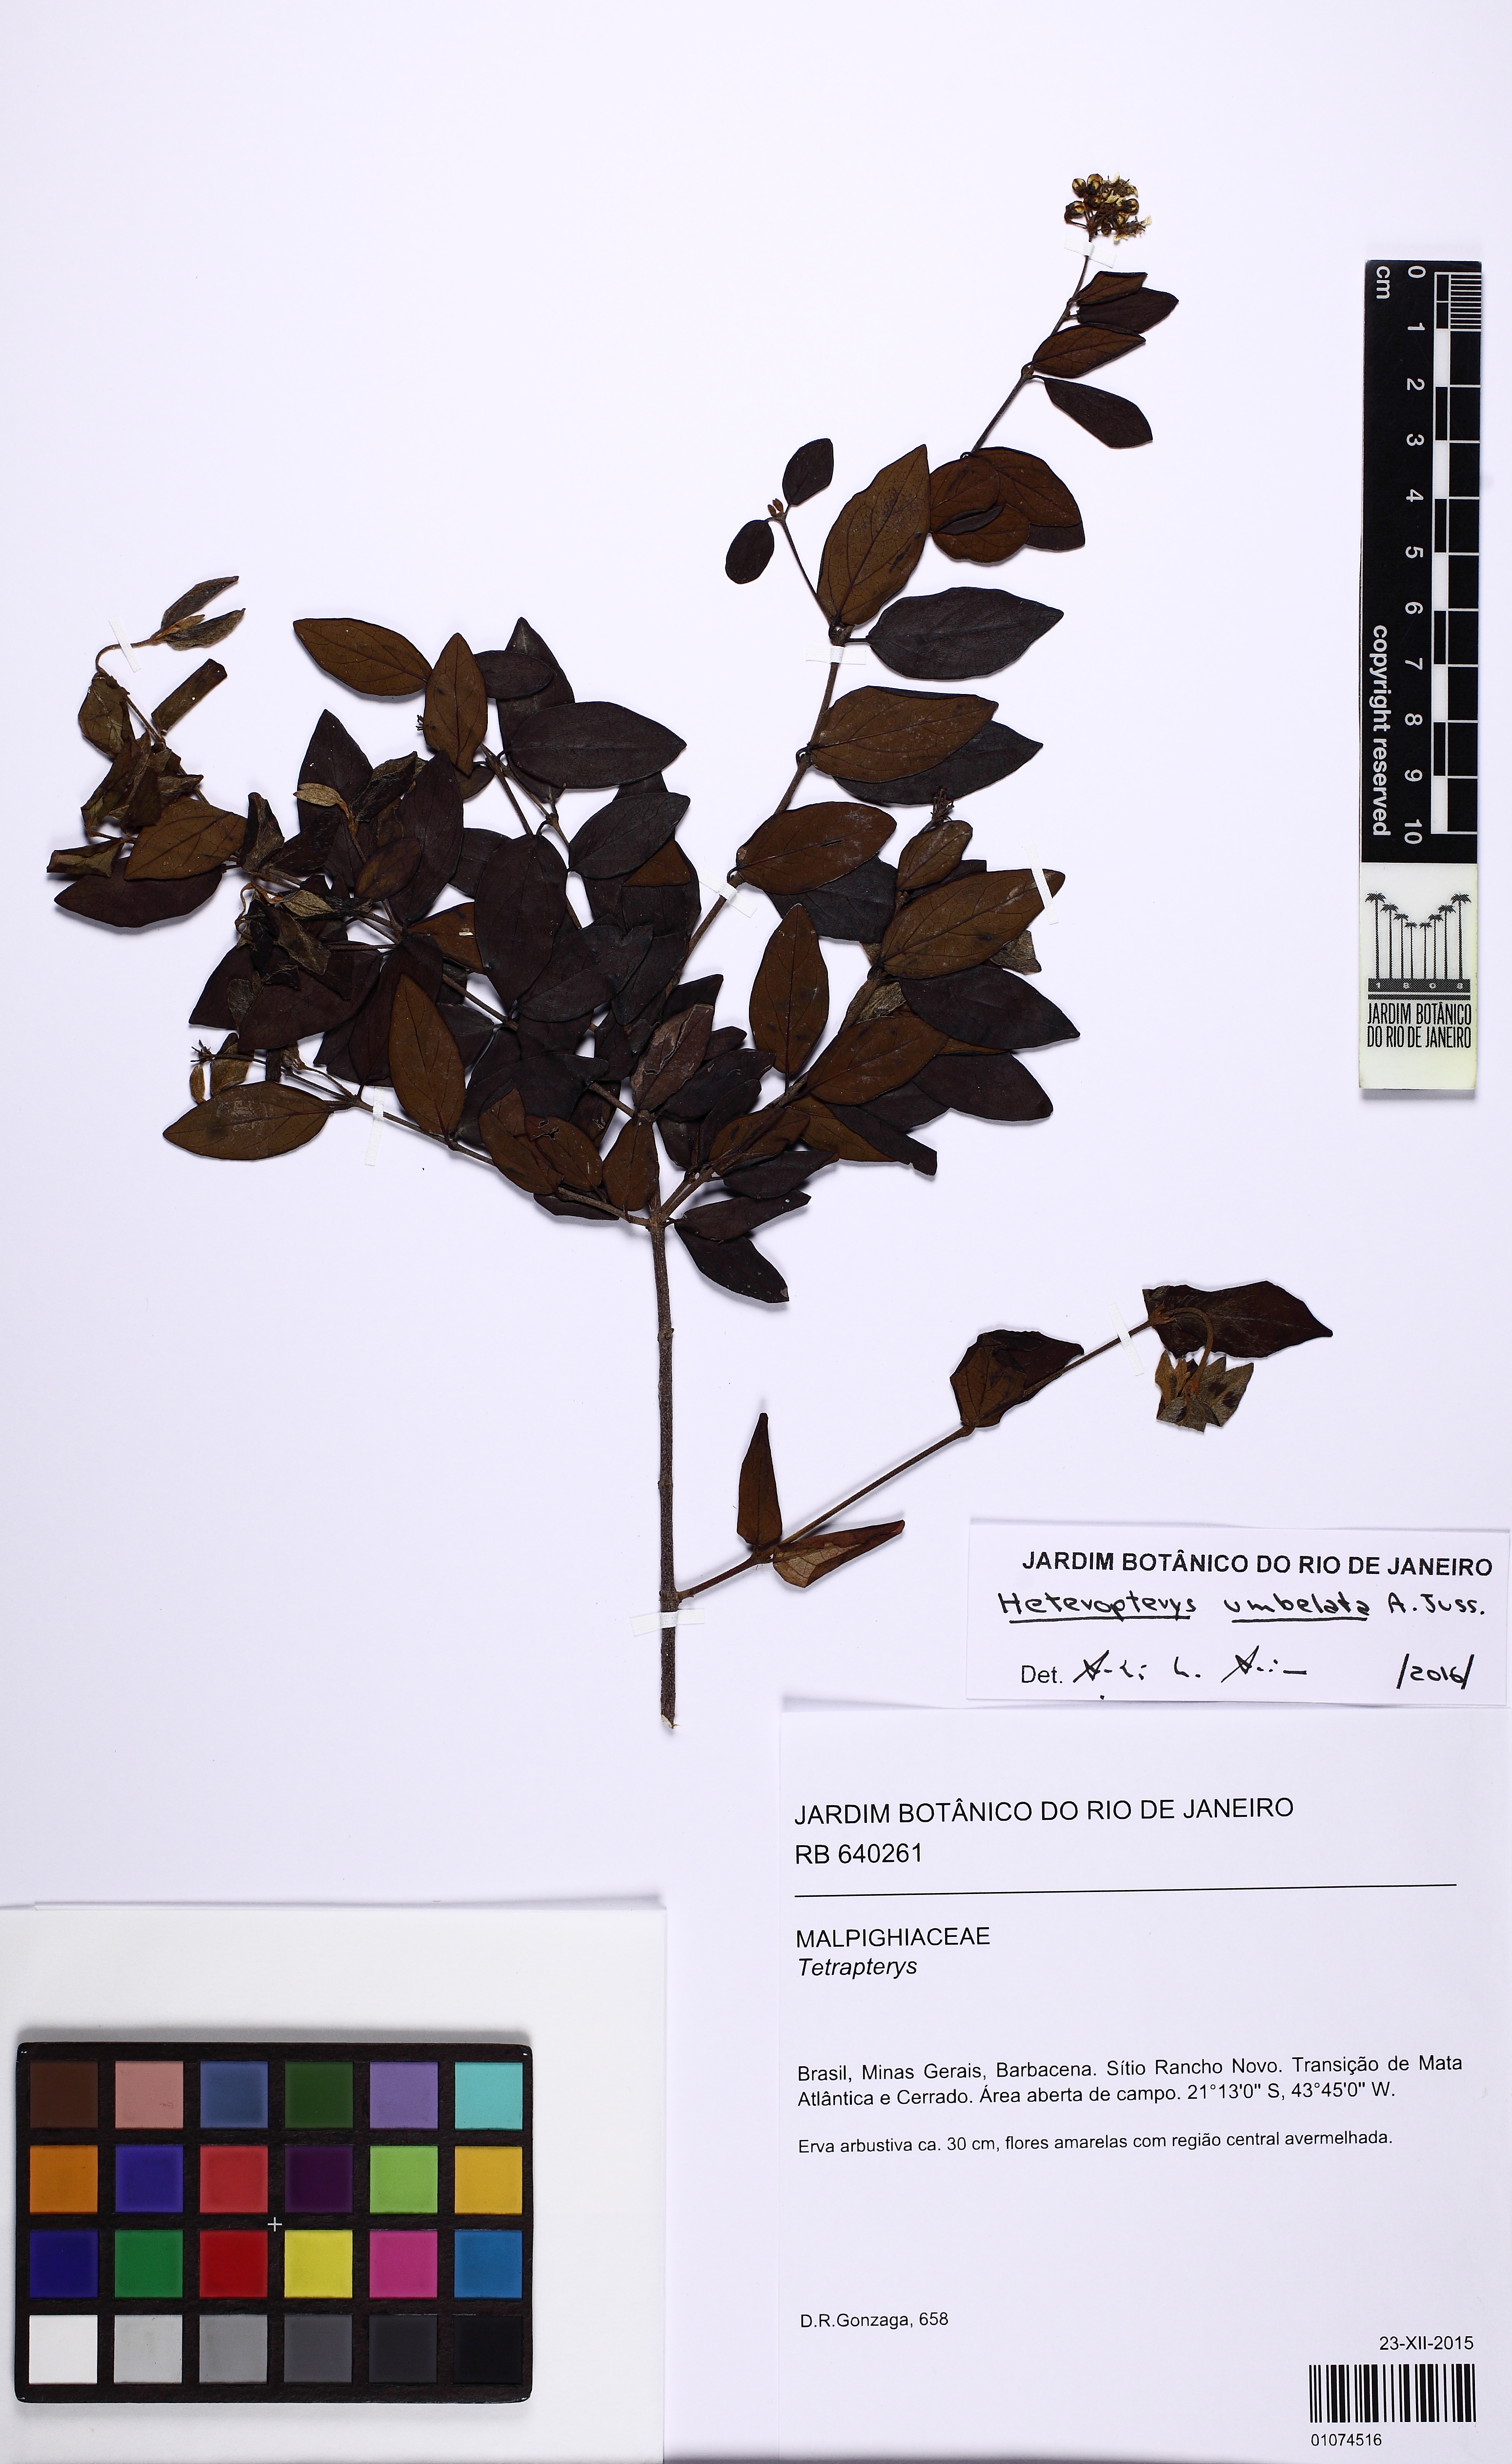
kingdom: Plantae
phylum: Tracheophyta
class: Magnoliopsida
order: Malpighiales
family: Malpighiaceae
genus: Heteropterys
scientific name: Heteropterys umbellata
